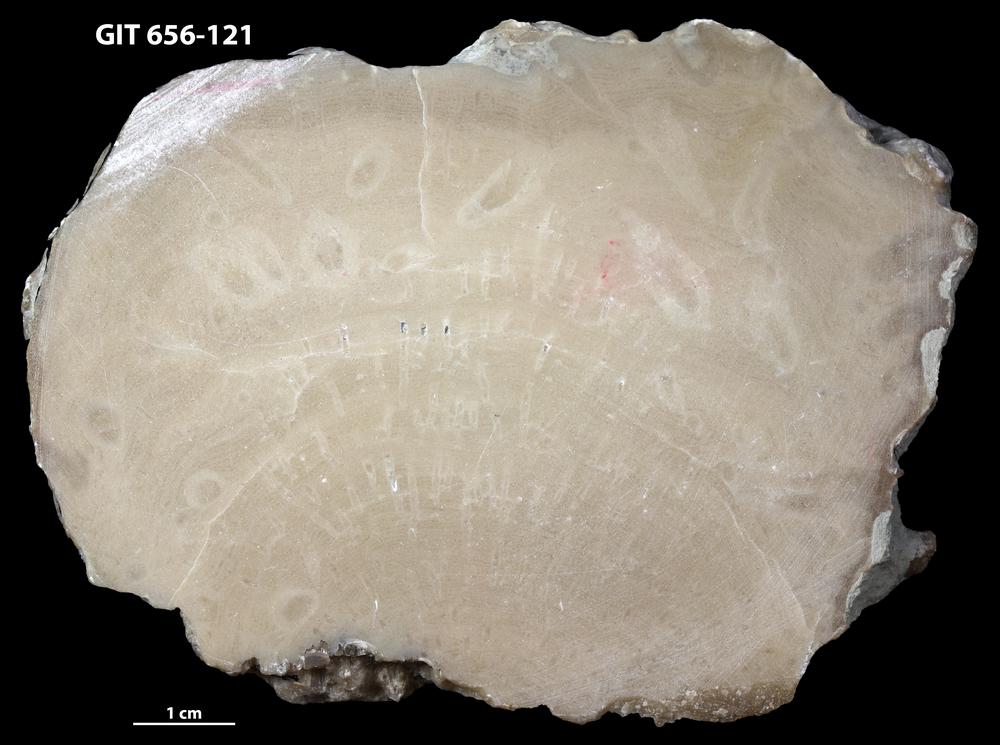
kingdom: Animalia
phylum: Porifera
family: Gerronostromatidae
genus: Petridiostroma
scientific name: Petridiostroma
